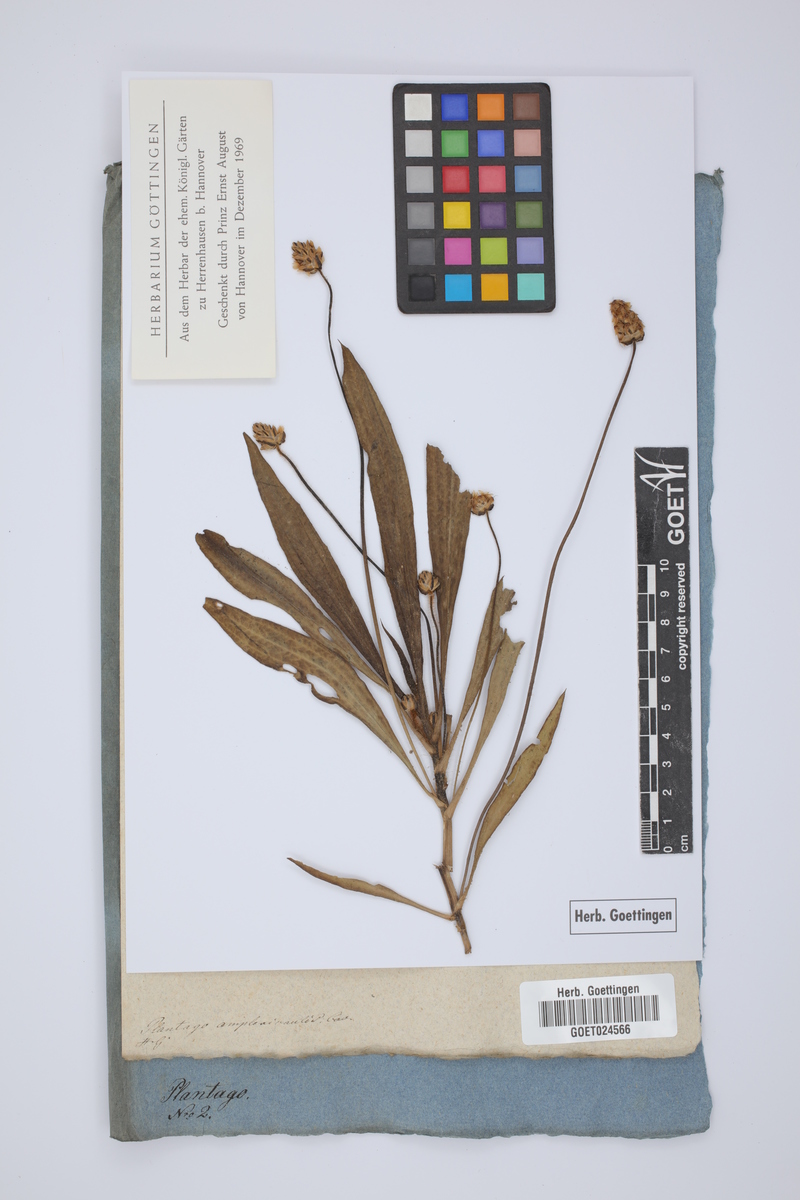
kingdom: Plantae
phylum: Tracheophyta
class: Magnoliopsida
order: Lamiales
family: Plantaginaceae
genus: Plantago
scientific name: Plantago amplexicaulis
